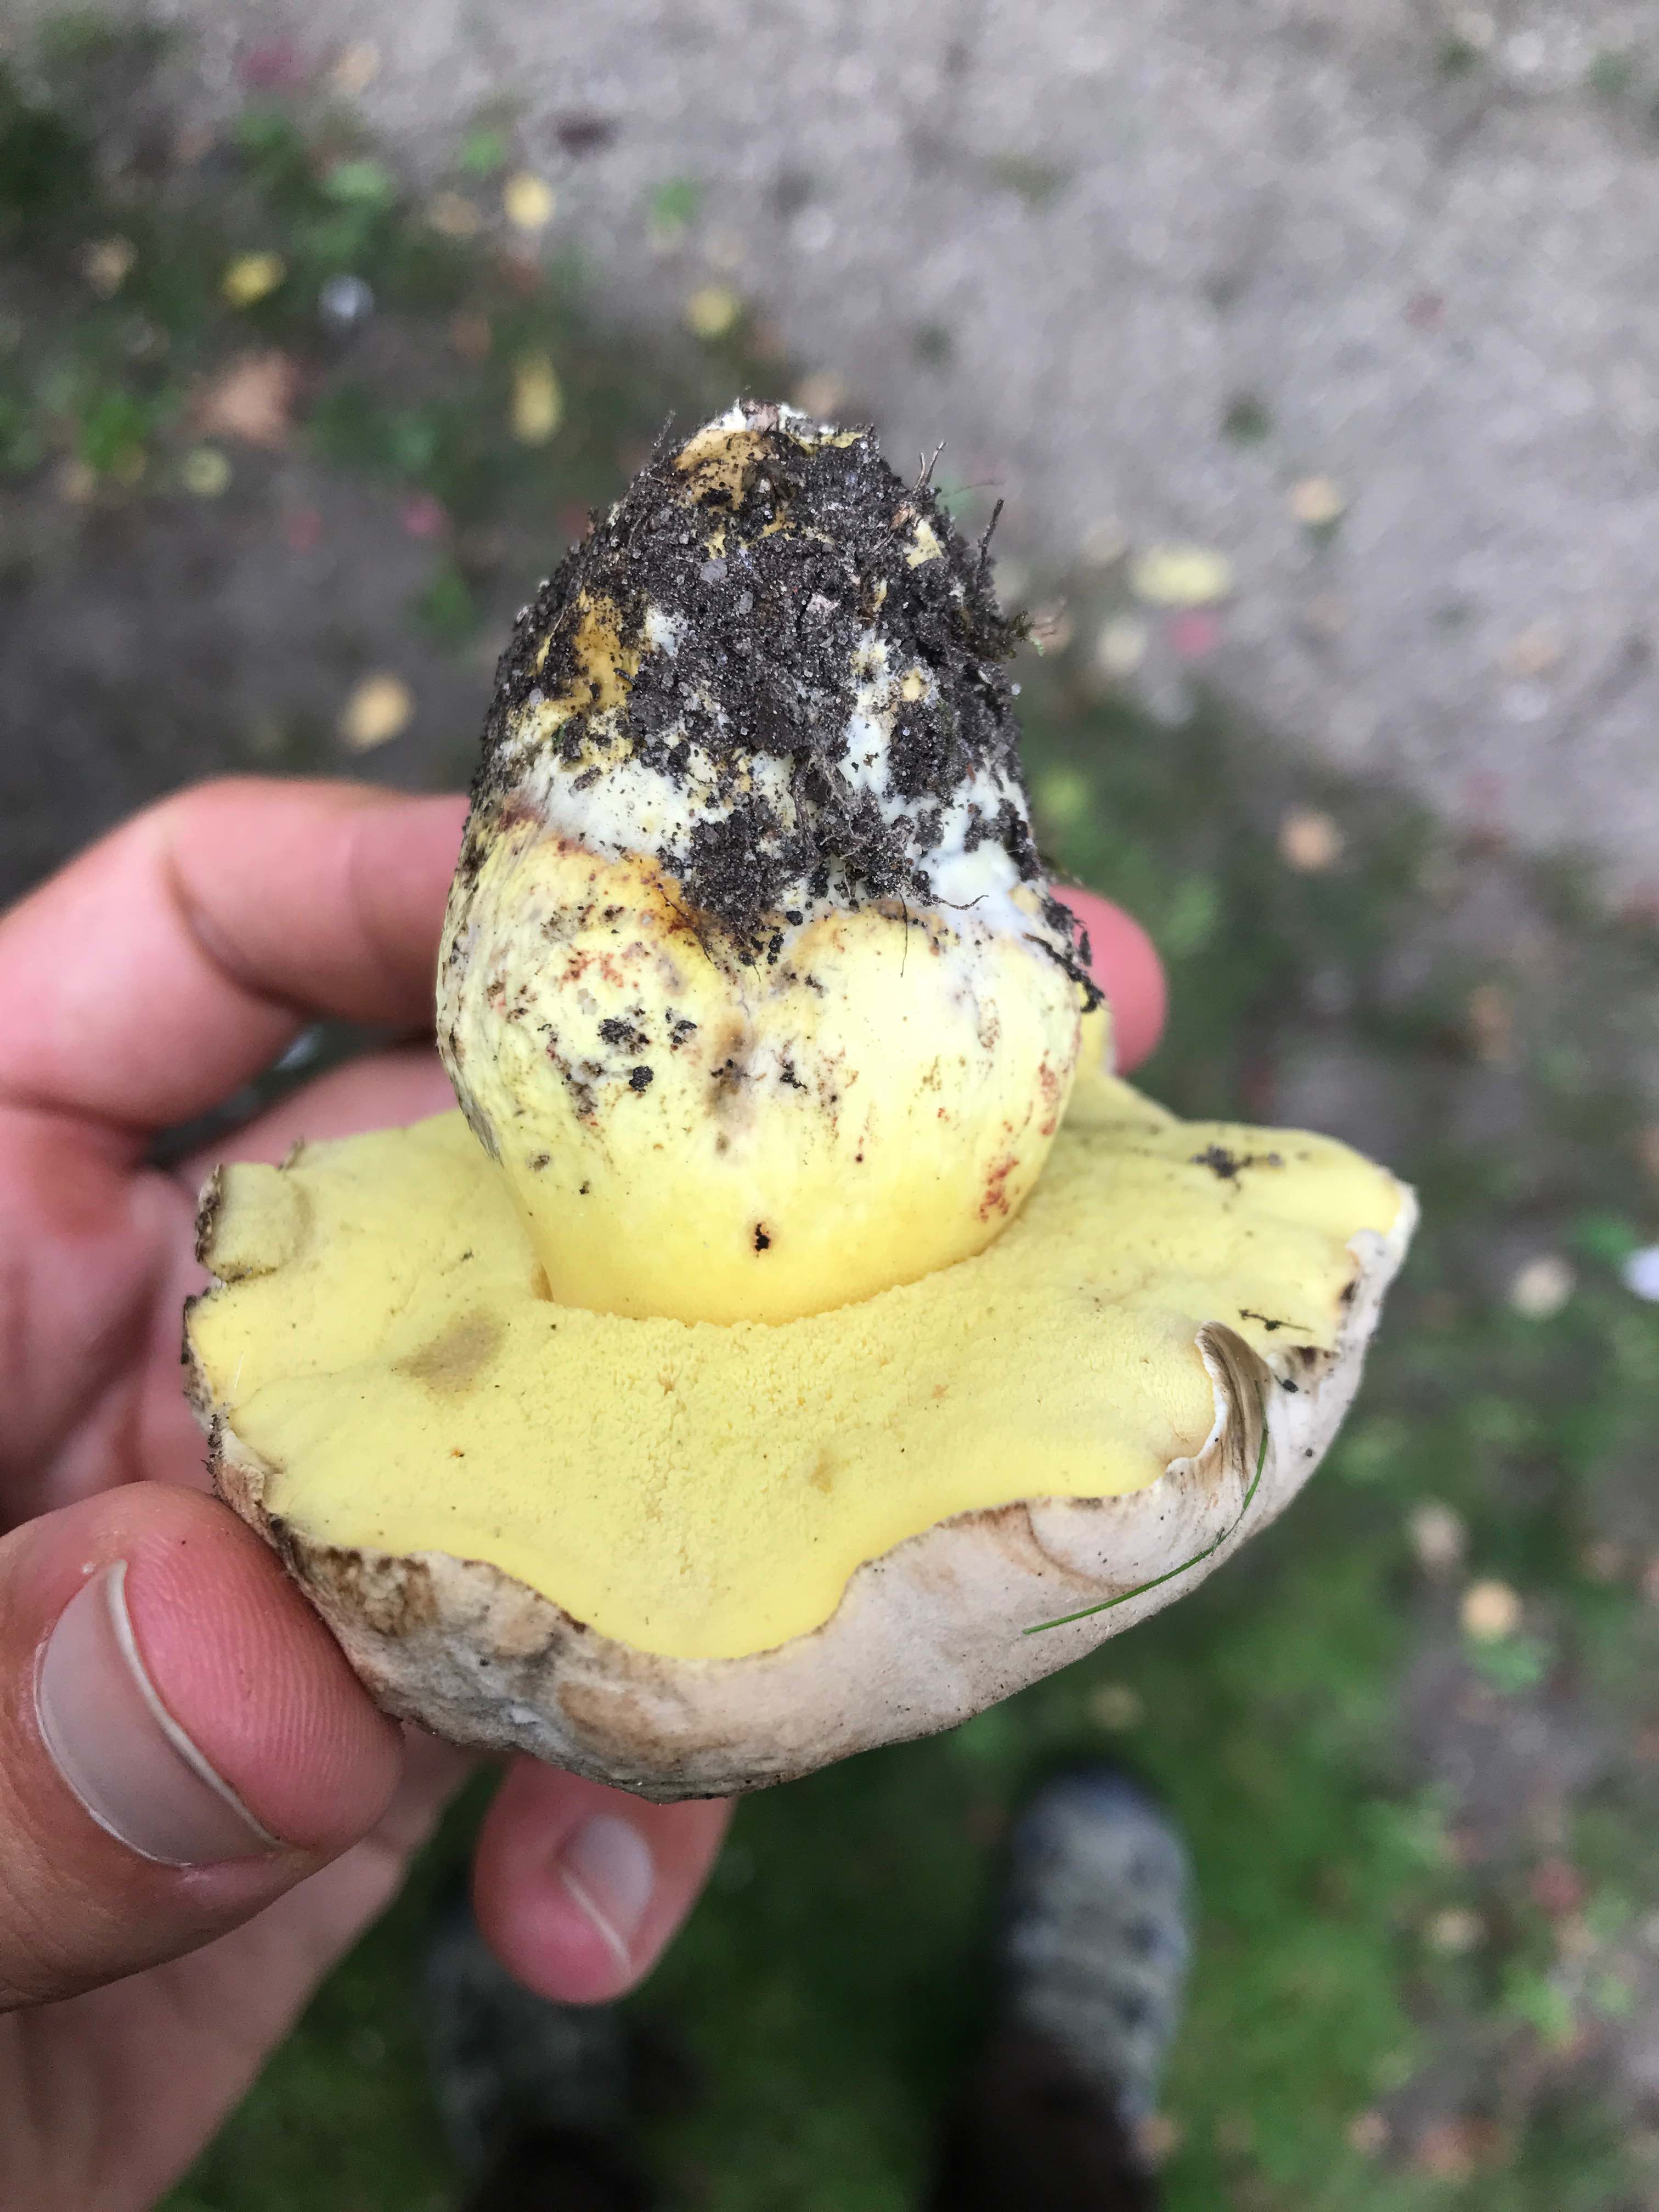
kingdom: Fungi
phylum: Basidiomycota
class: Agaricomycetes
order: Boletales
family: Boletaceae
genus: Caloboletus
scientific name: Caloboletus radicans
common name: rod-rørhat
